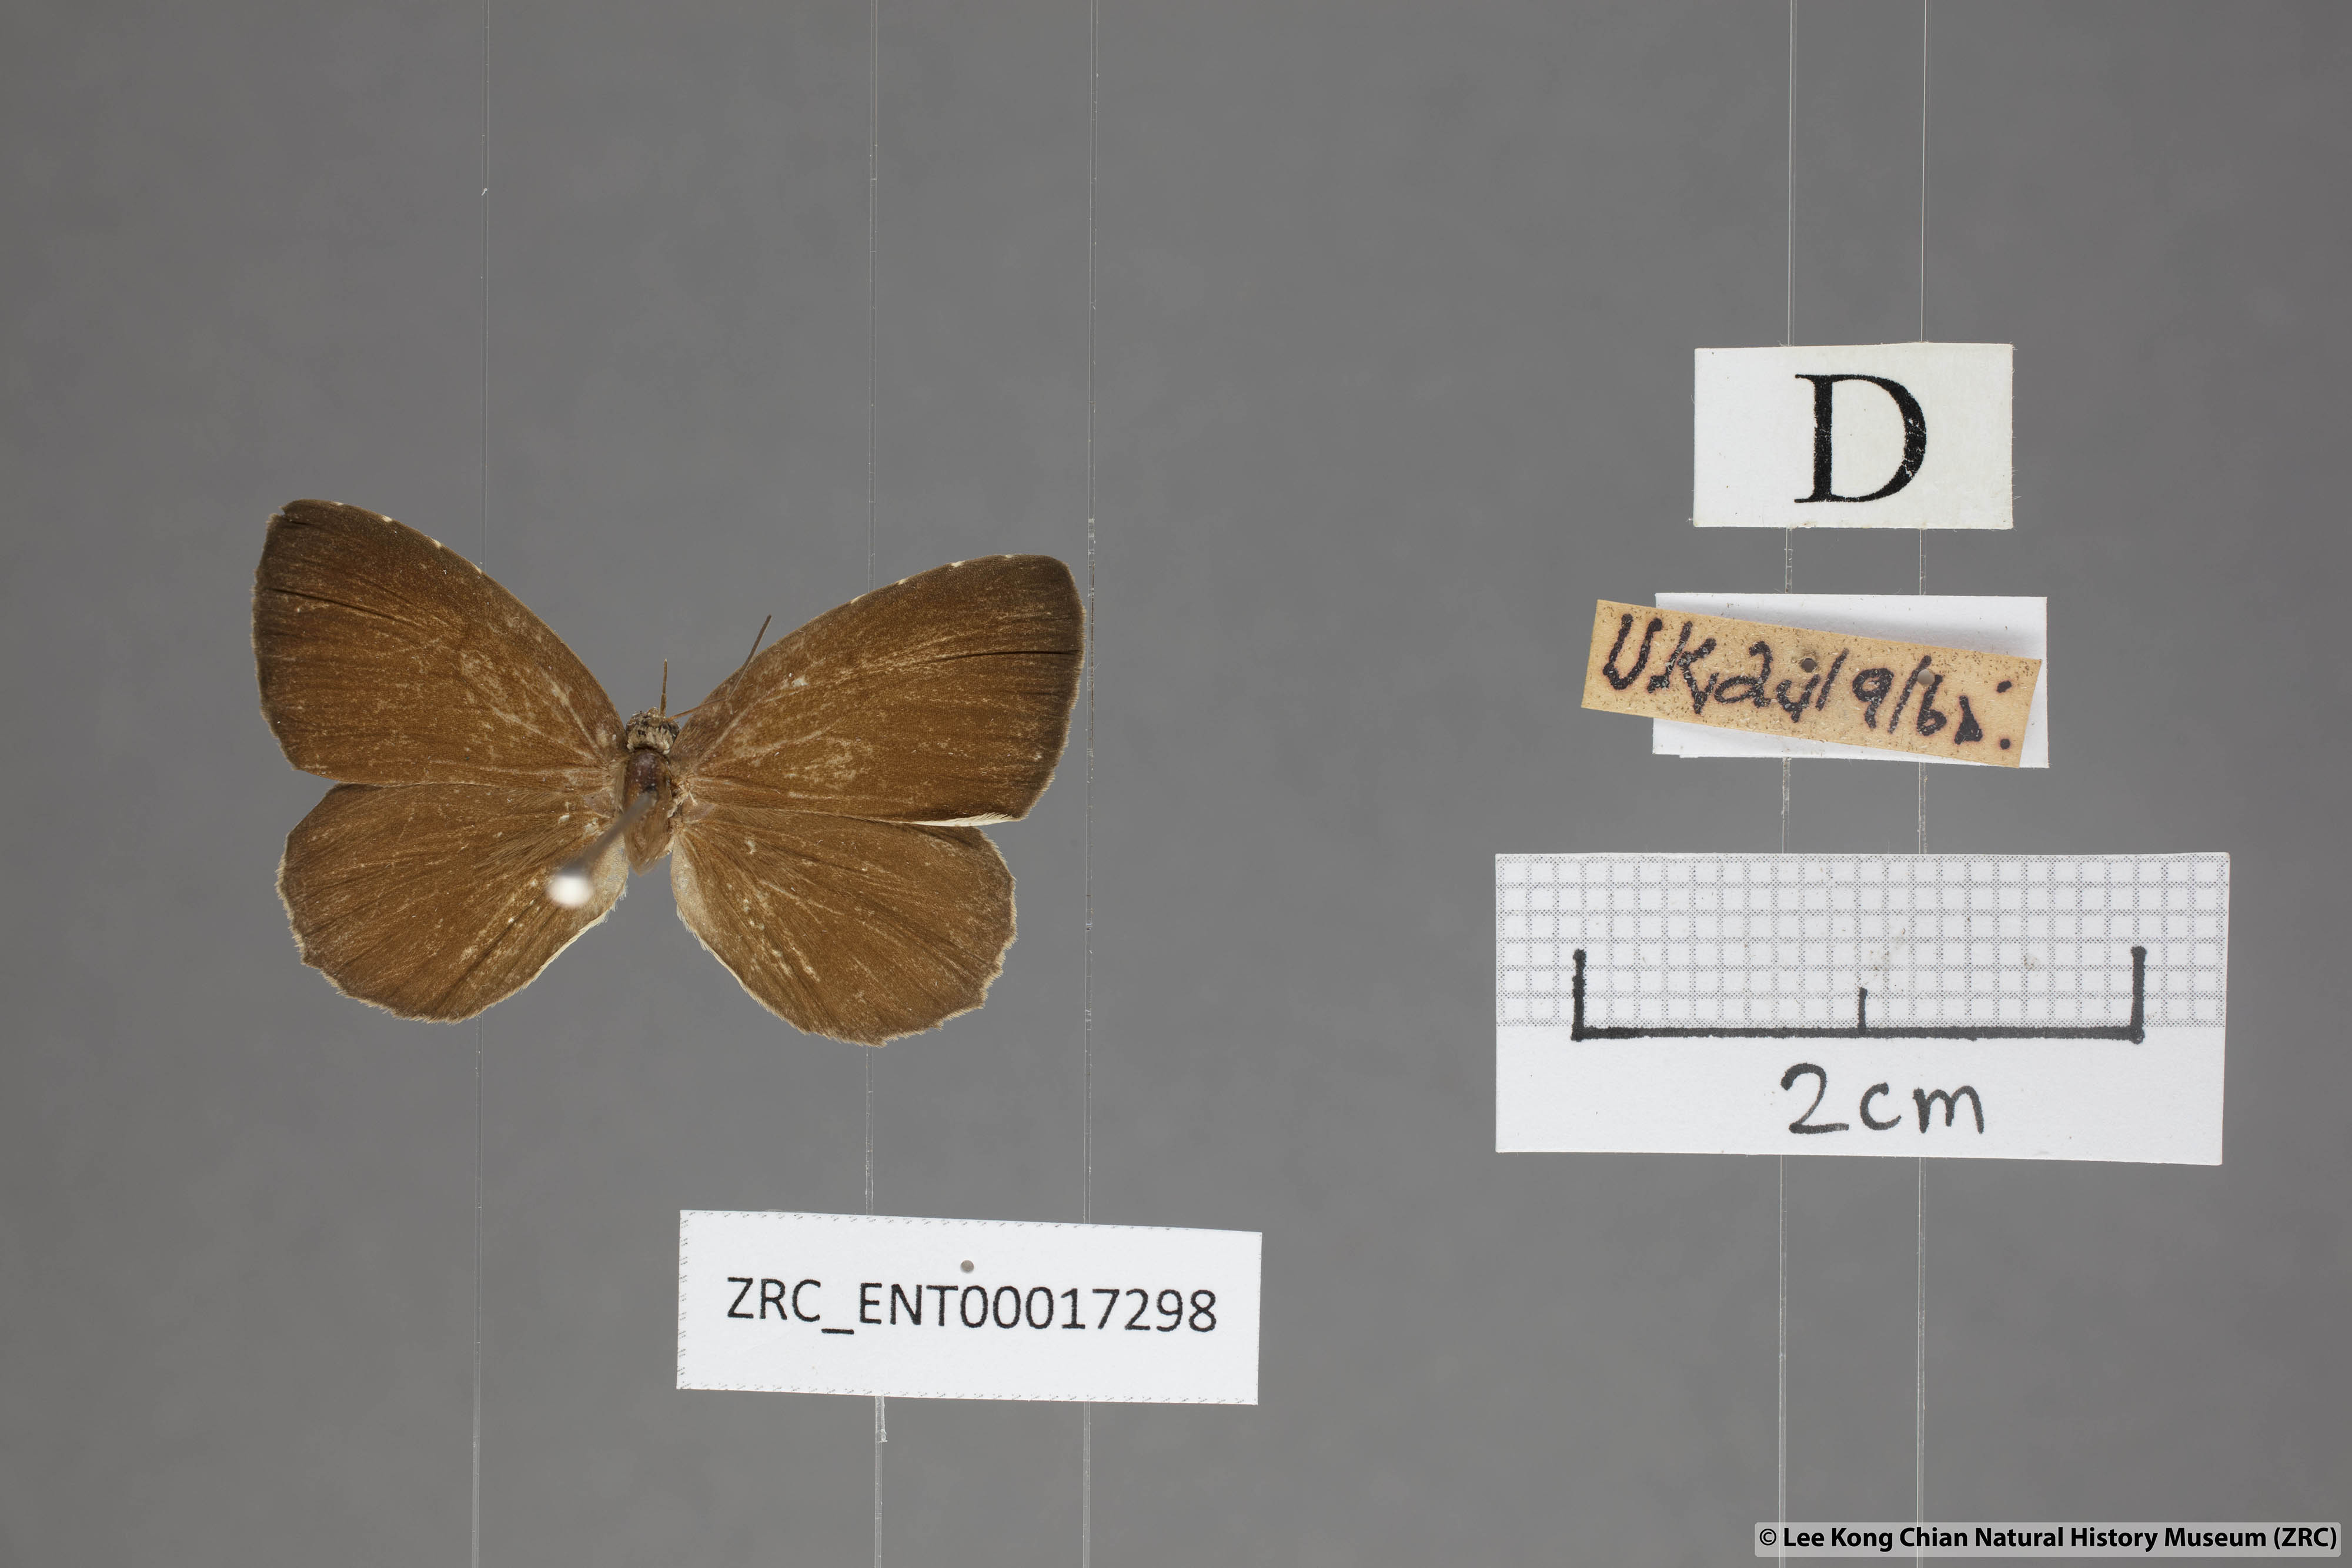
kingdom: Animalia
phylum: Arthropoda
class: Insecta
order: Lepidoptera
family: Lycaenidae
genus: Allotinus
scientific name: Allotinus strigatus
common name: Small malayan darkie
